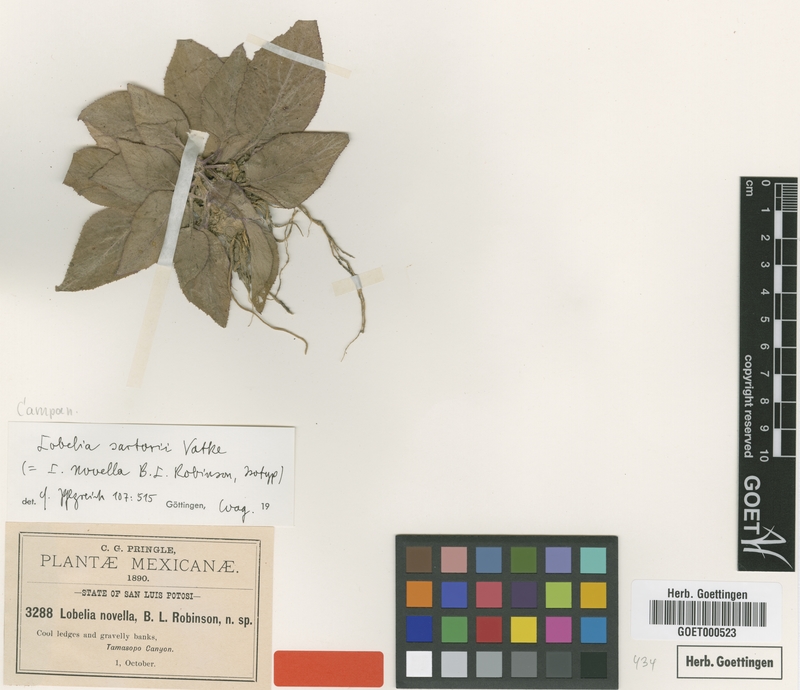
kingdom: Plantae
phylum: Tracheophyta
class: Magnoliopsida
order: Asterales
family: Campanulaceae
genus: Lobelia
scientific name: Lobelia sartorii
